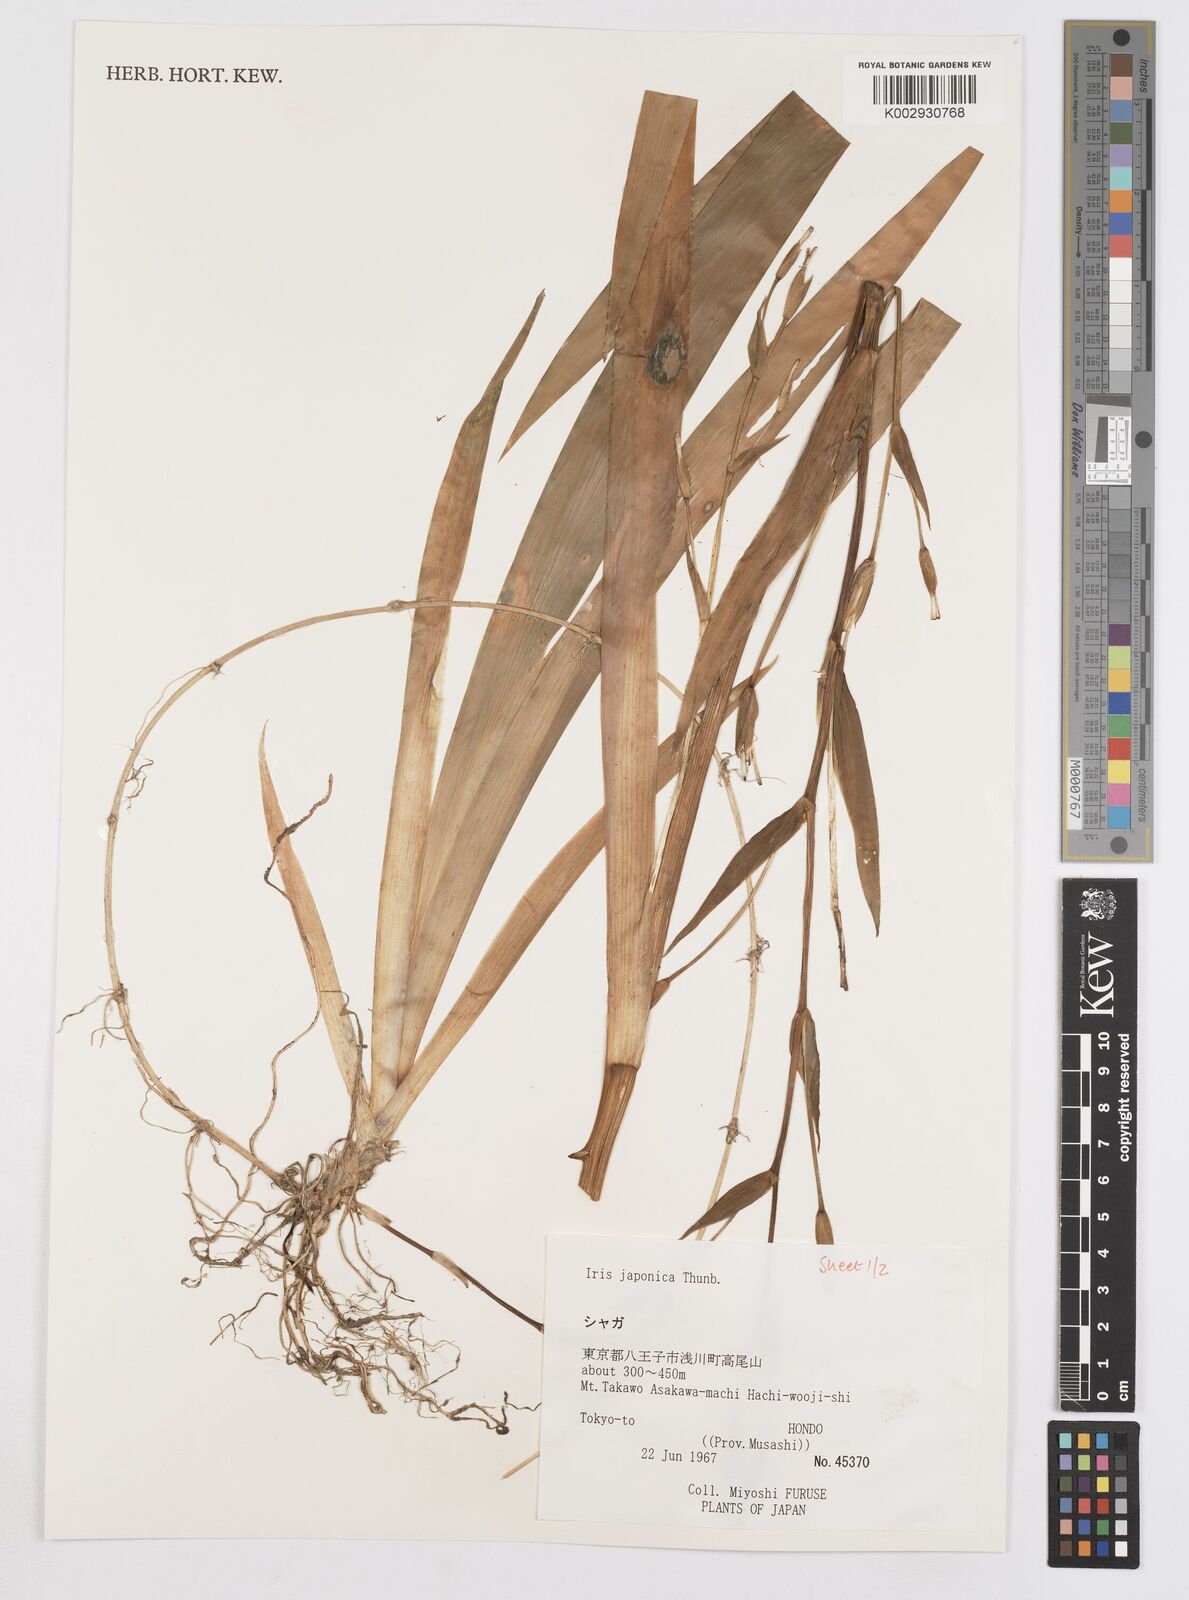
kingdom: Plantae
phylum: Tracheophyta
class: Liliopsida
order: Asparagales
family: Iridaceae
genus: Iris
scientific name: Iris japonica
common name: Butterfly-flower
